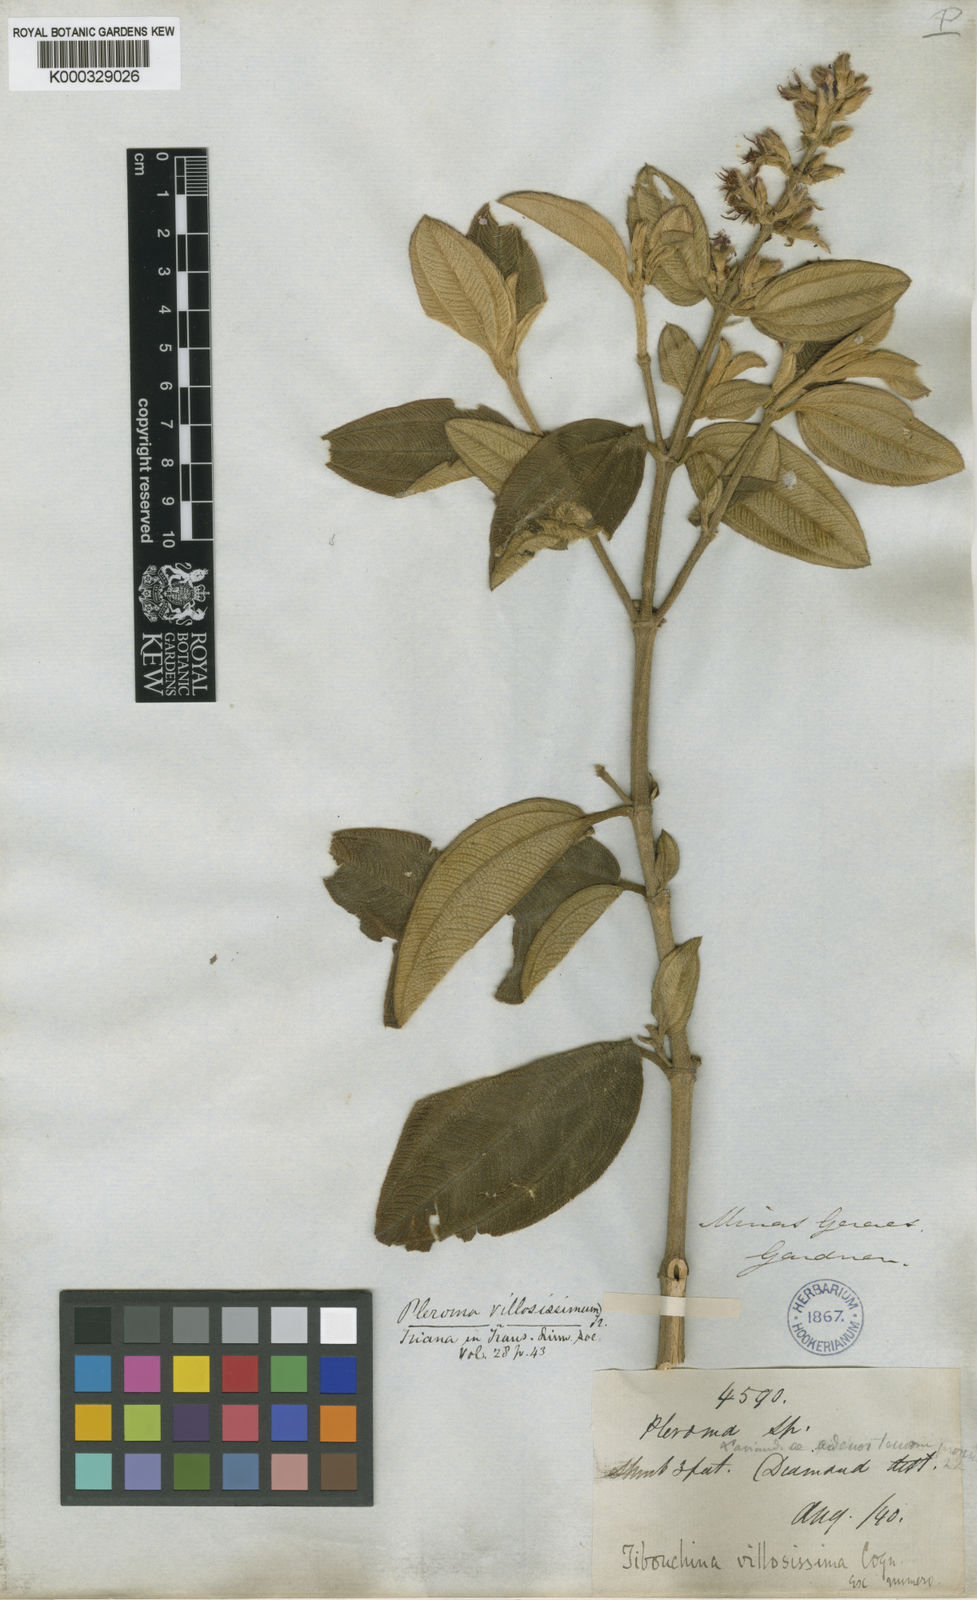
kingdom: Plantae
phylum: Tracheophyta
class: Magnoliopsida
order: Myrtales
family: Melastomataceae
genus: Pleroma
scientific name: Pleroma villosissimum
